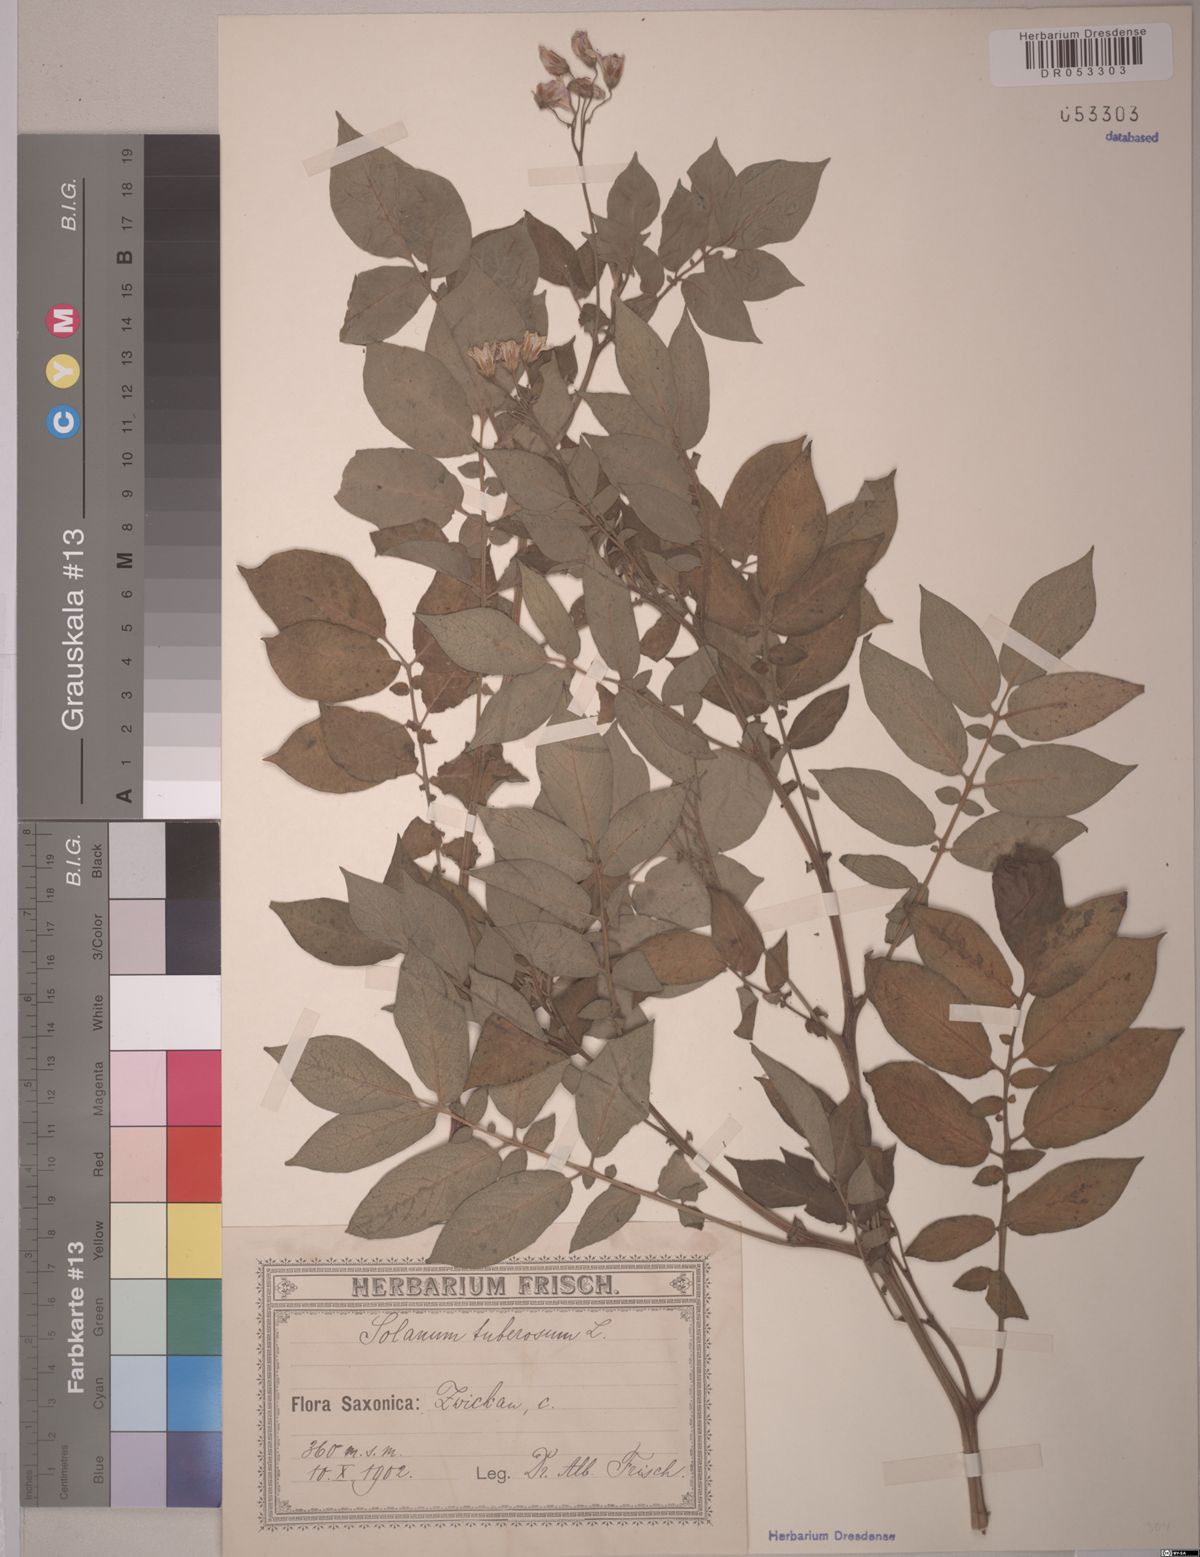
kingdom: Plantae
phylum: Tracheophyta
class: Magnoliopsida
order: Solanales
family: Solanaceae
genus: Solanum
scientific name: Solanum tuberosum
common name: Potato
